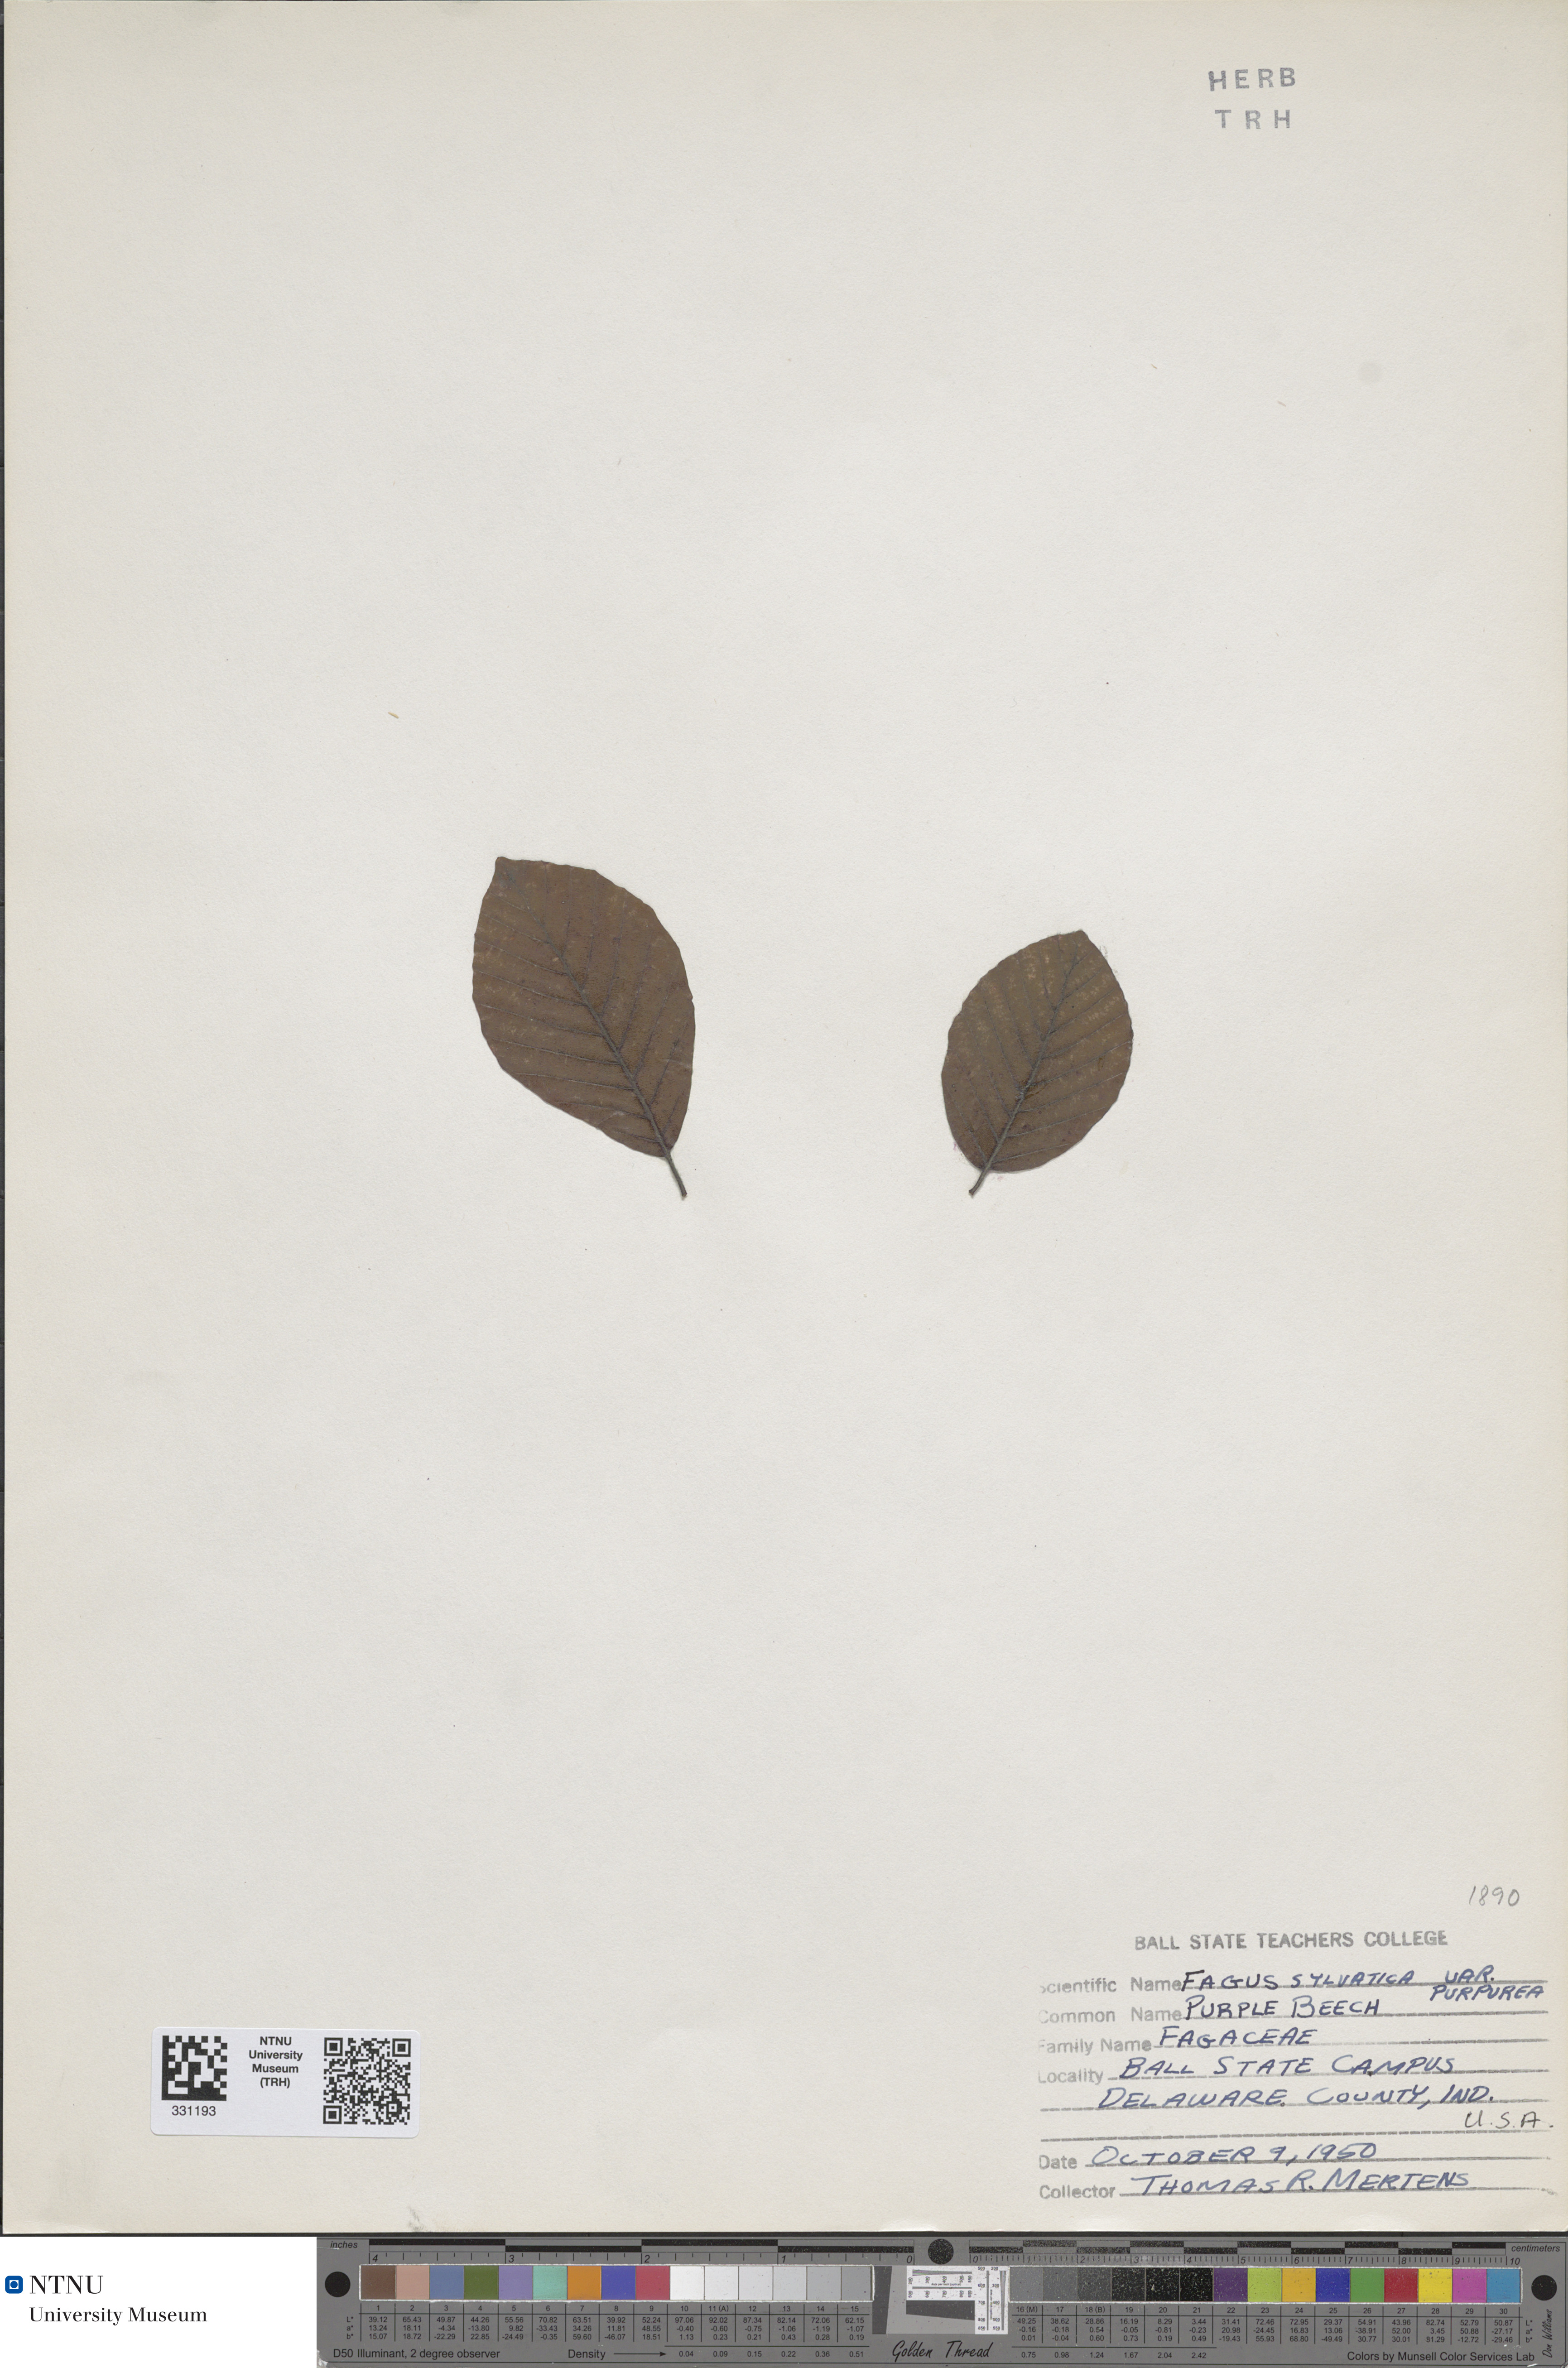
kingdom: Plantae
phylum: Tracheophyta
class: Magnoliopsida
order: Fagales
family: Fagaceae
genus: Fagus
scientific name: Fagus sylvatica
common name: Beech
